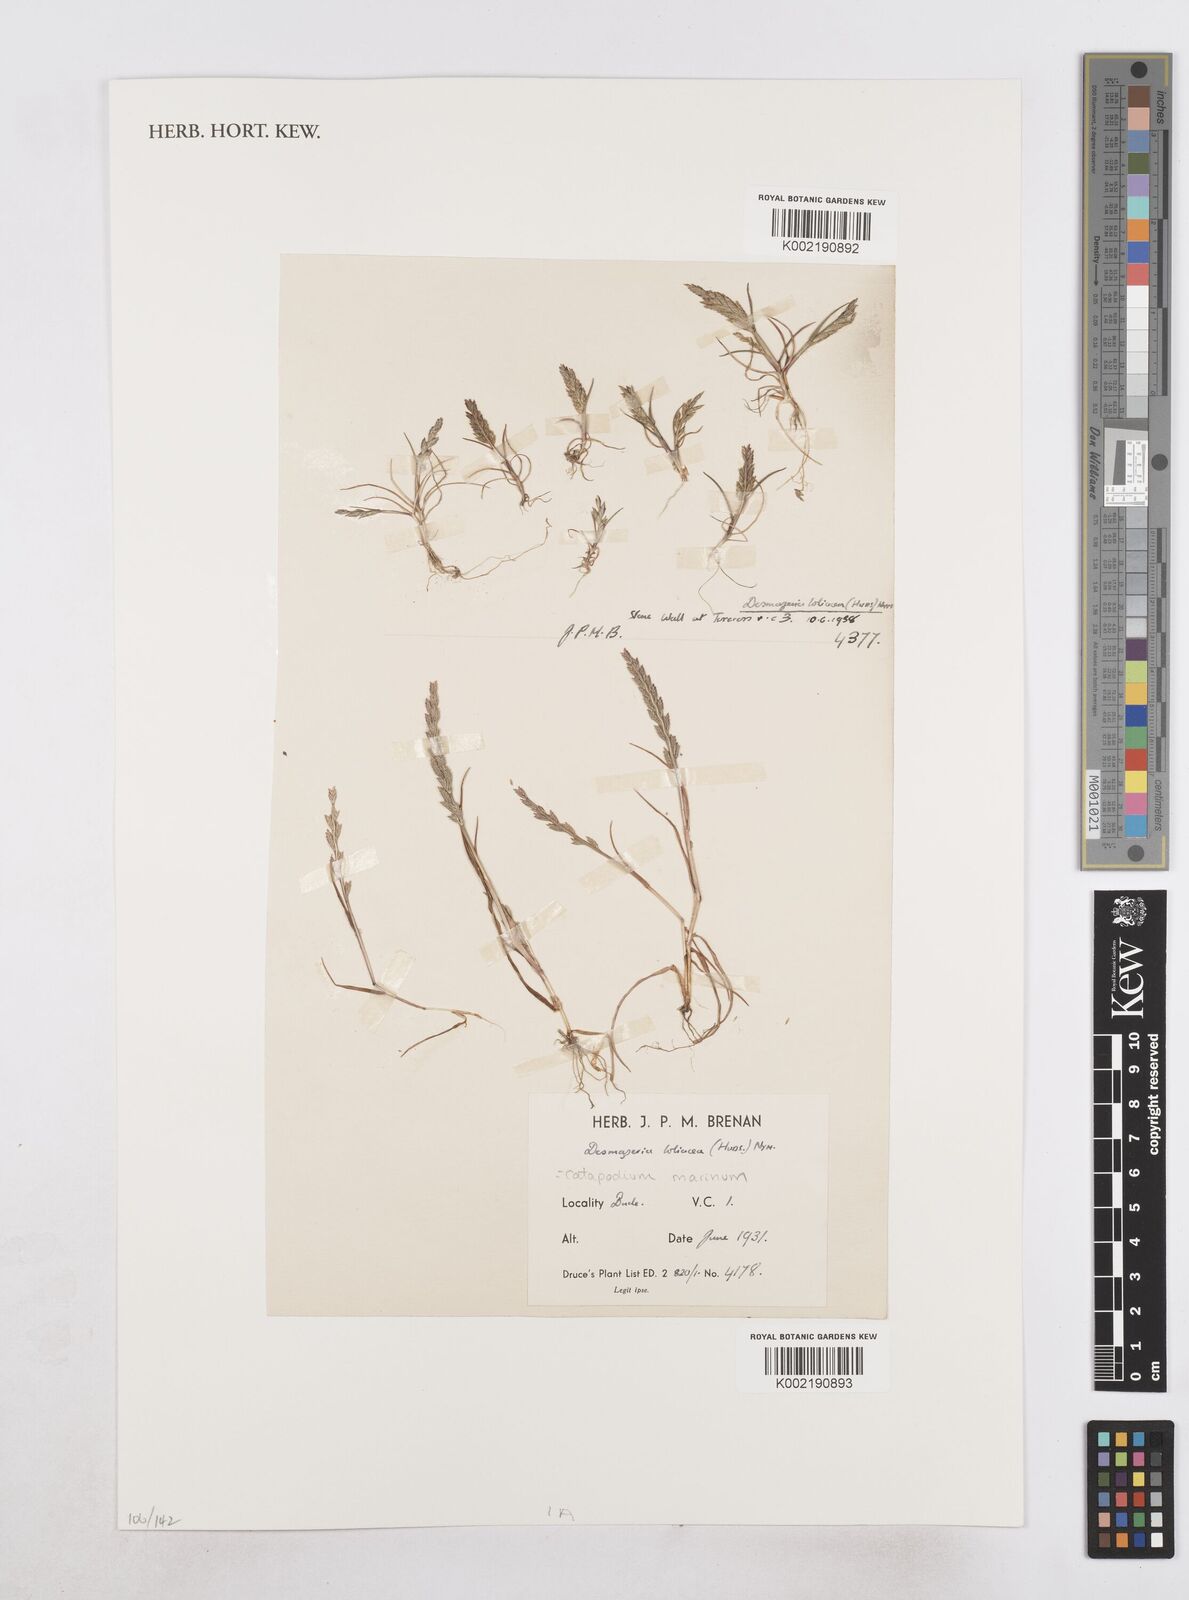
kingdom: Plantae
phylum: Tracheophyta
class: Liliopsida
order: Poales
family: Poaceae
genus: Catapodium
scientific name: Catapodium marinum
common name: Sea fern-grass
